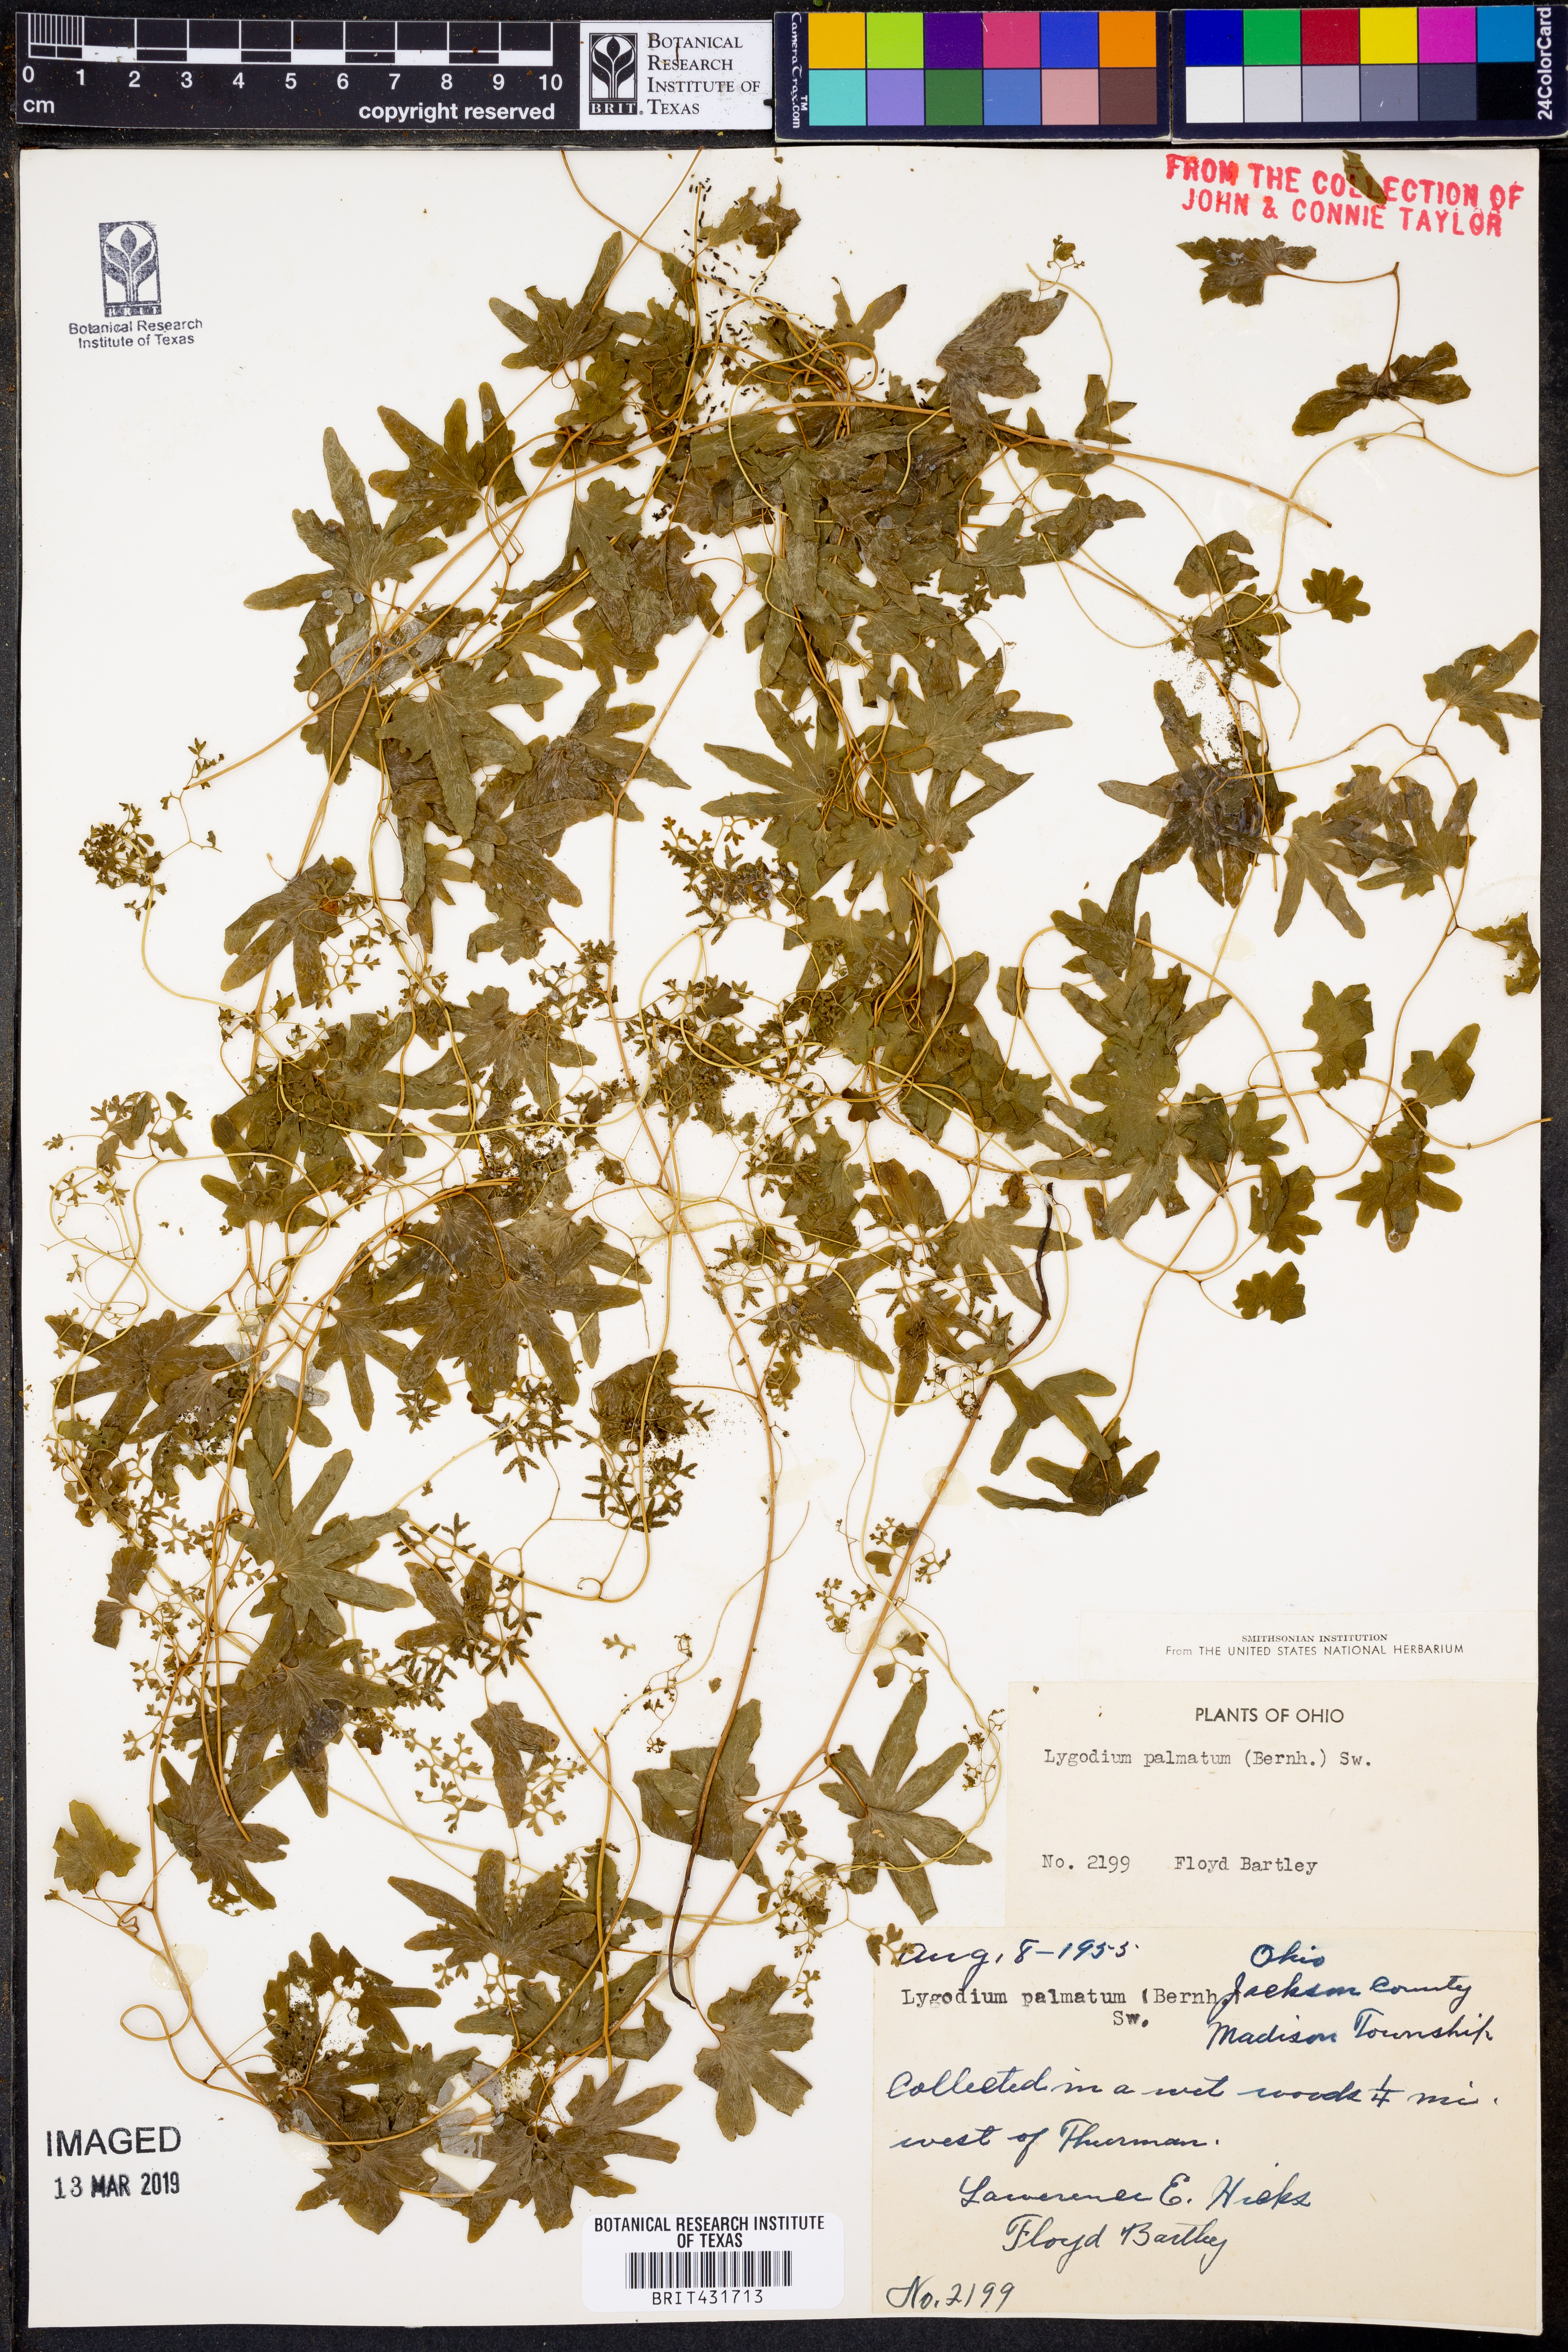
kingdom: Plantae
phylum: Tracheophyta
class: Polypodiopsida
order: Schizaeales
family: Lygodiaceae
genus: Lygodium
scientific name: Lygodium palmatum
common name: American climbing fern
